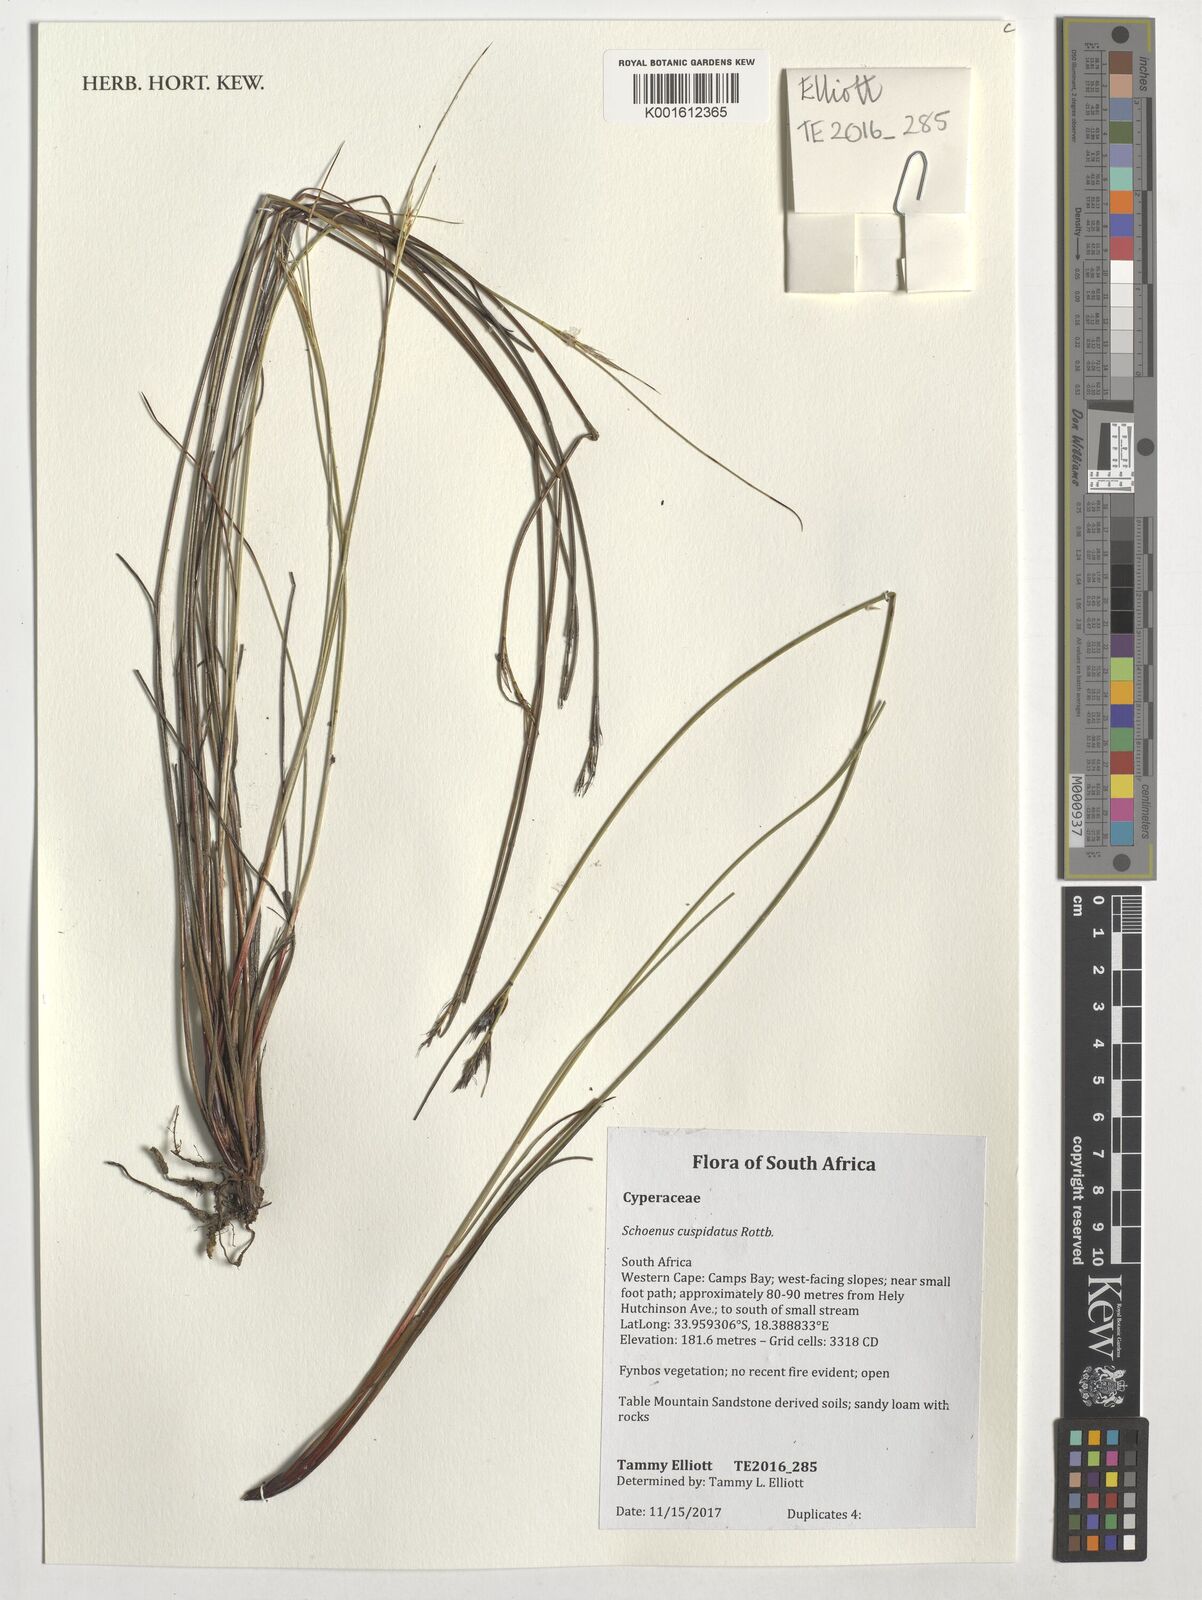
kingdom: Plantae
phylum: Tracheophyta
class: Liliopsida
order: Poales
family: Cyperaceae
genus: Schoenus
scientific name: Schoenus cuspidatus
